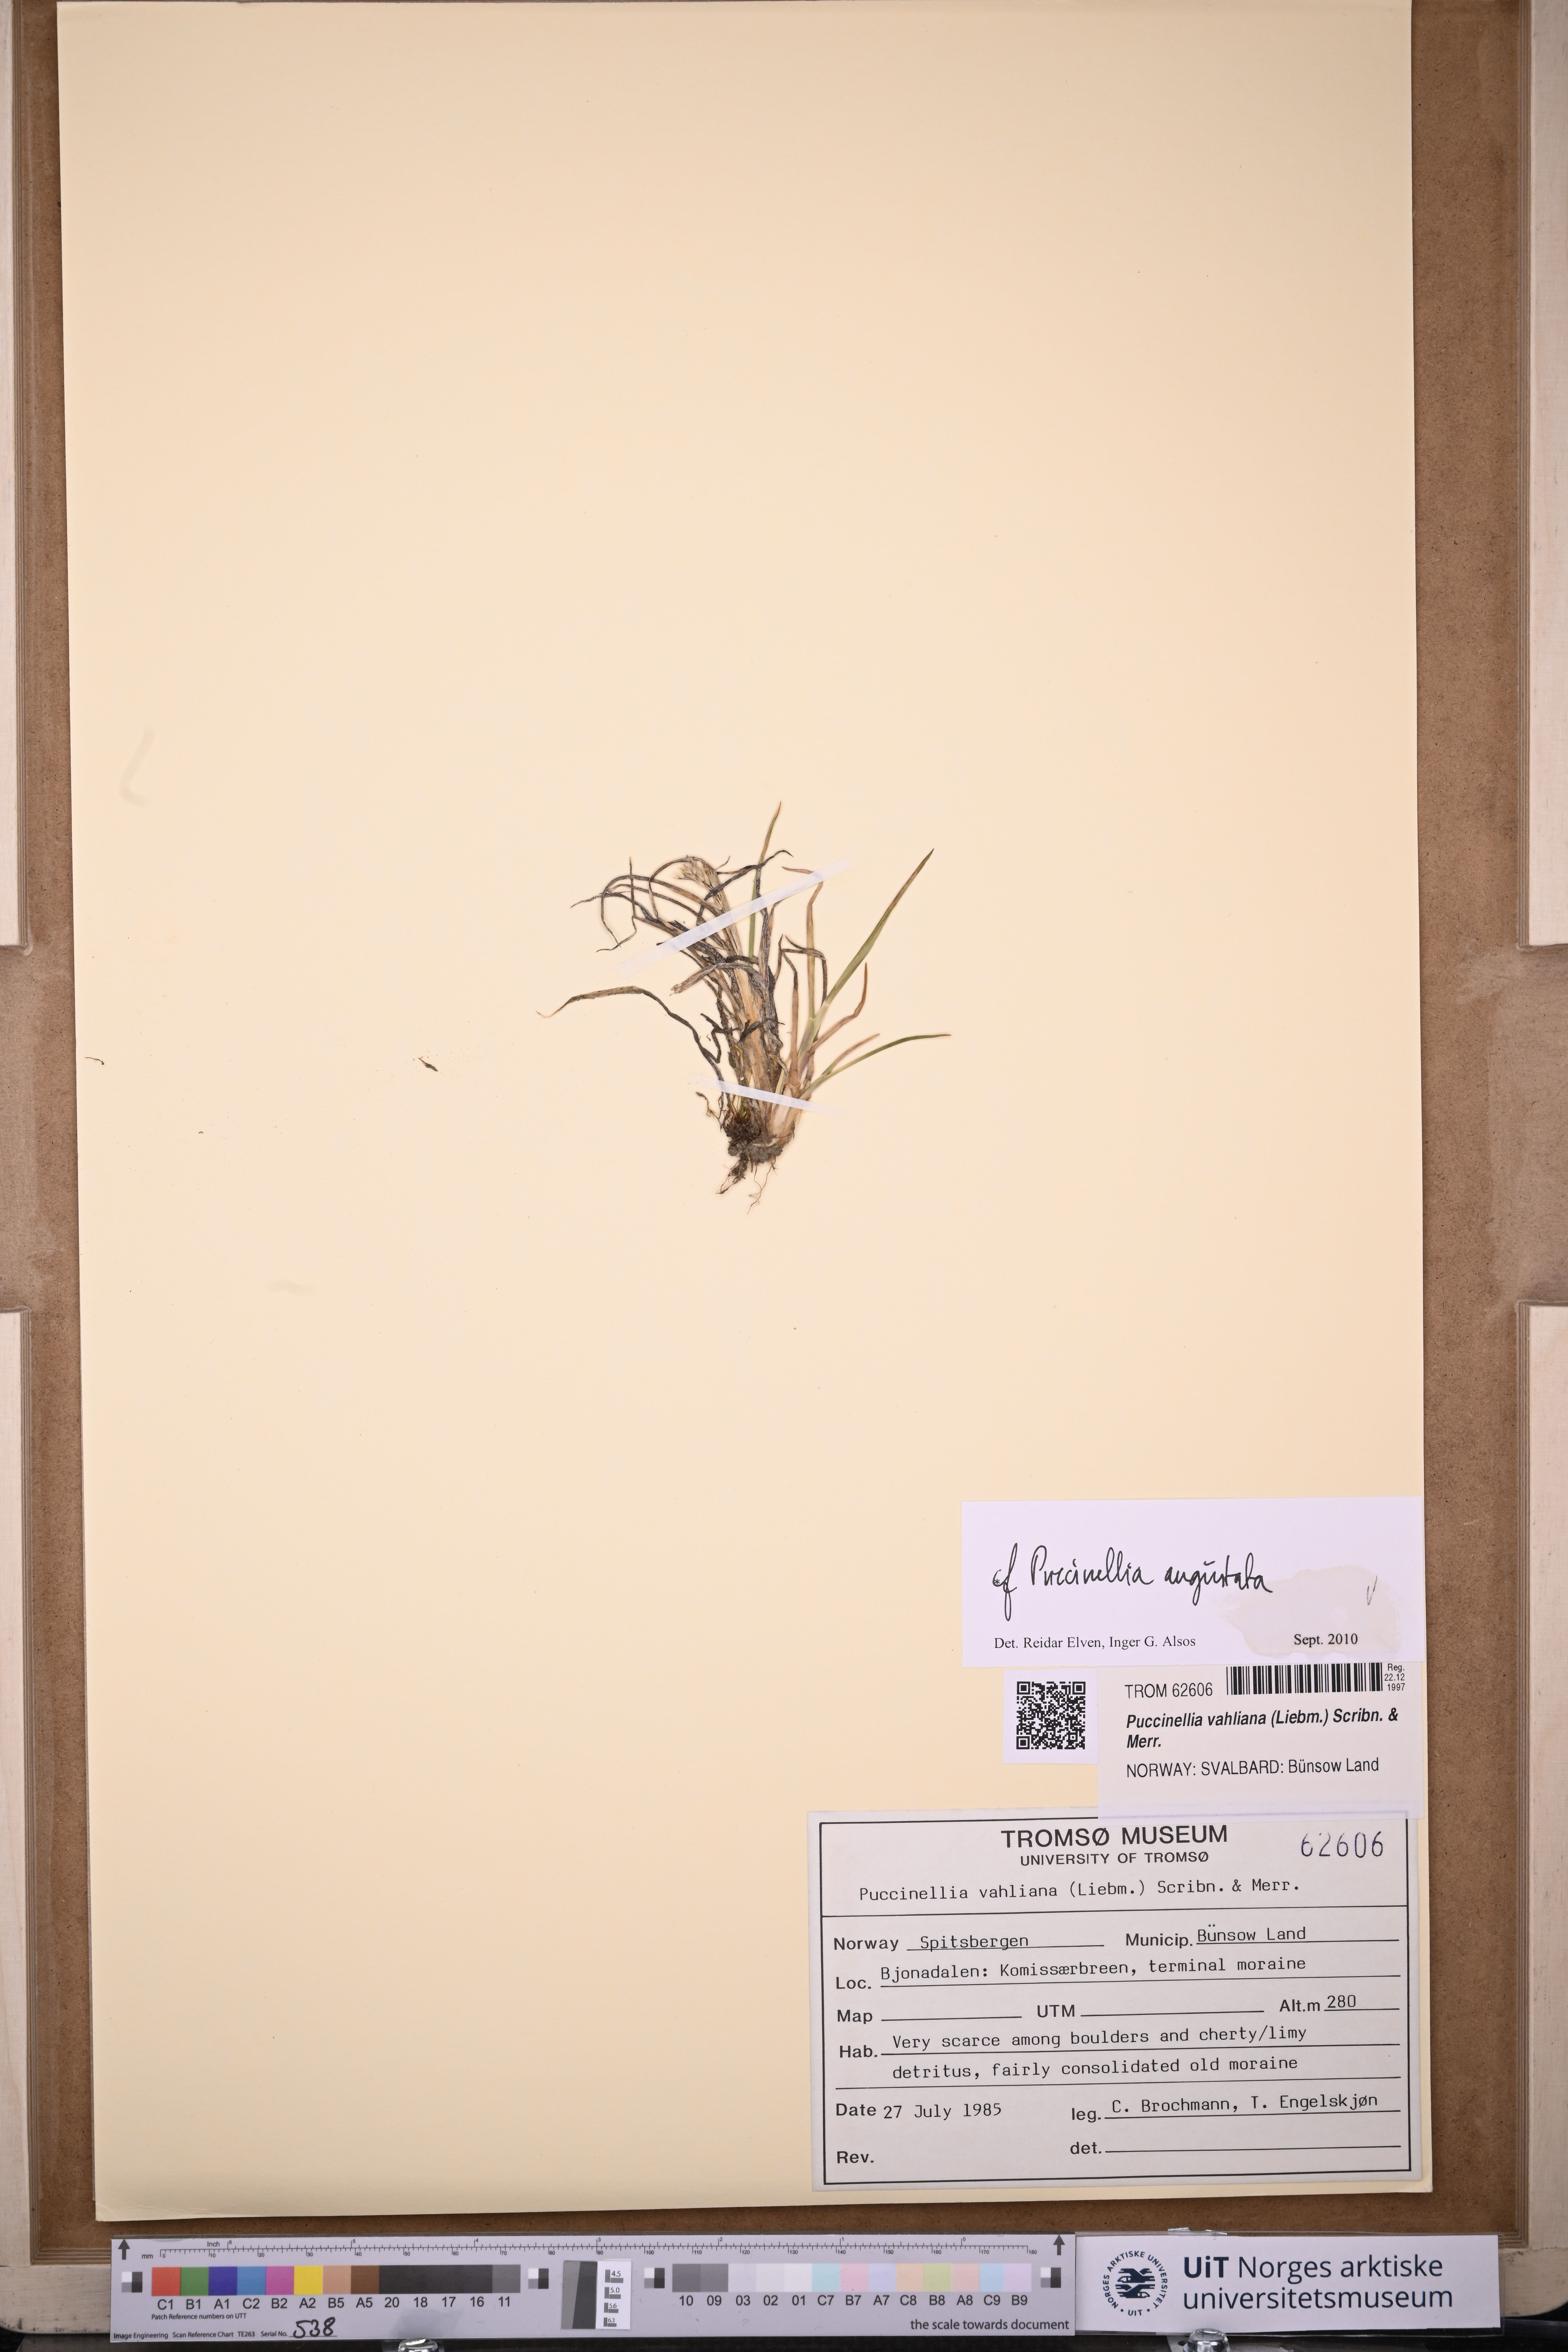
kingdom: Plantae
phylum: Tracheophyta
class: Liliopsida
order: Poales
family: Poaceae
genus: Puccinellia
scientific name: Puccinellia angustata
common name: Narrow alkaligrass
